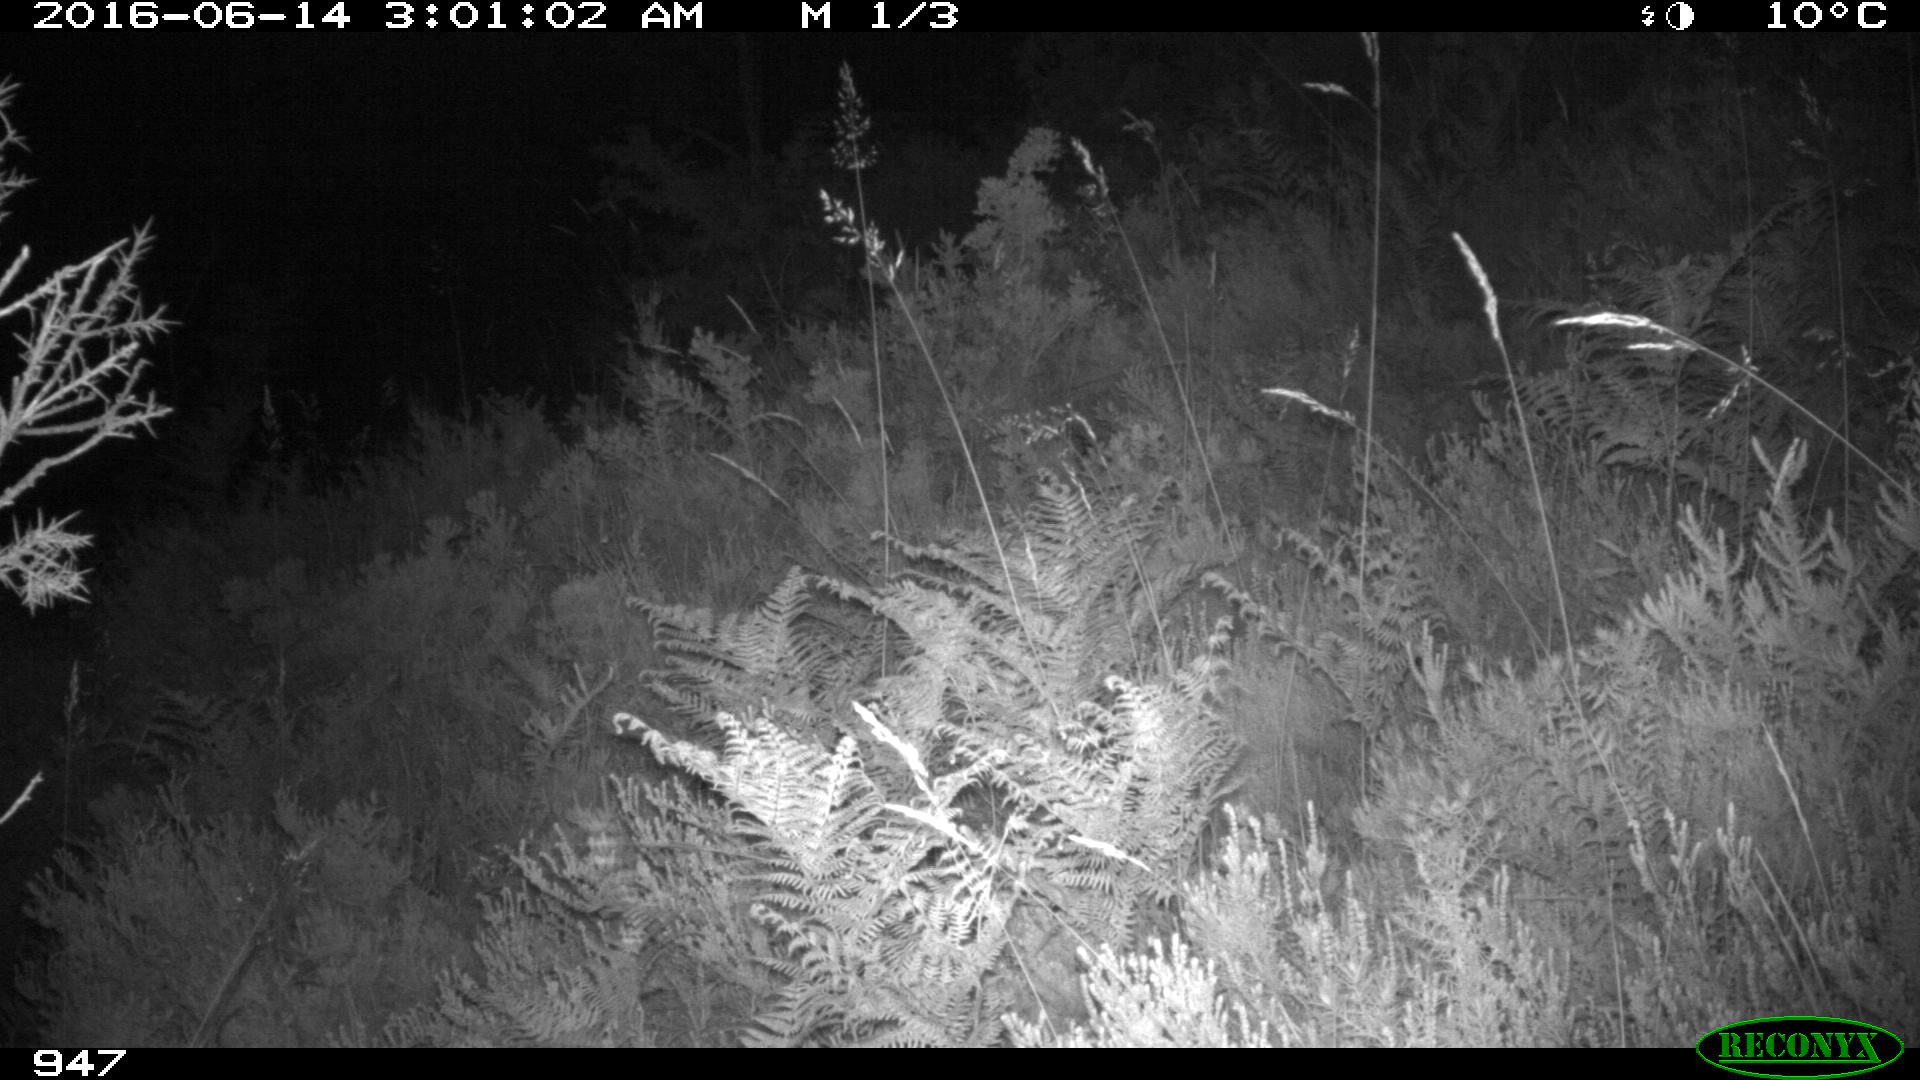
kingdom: Animalia
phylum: Chordata
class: Mammalia
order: Artiodactyla
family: Cervidae
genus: Capreolus
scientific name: Capreolus capreolus
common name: Western roe deer
